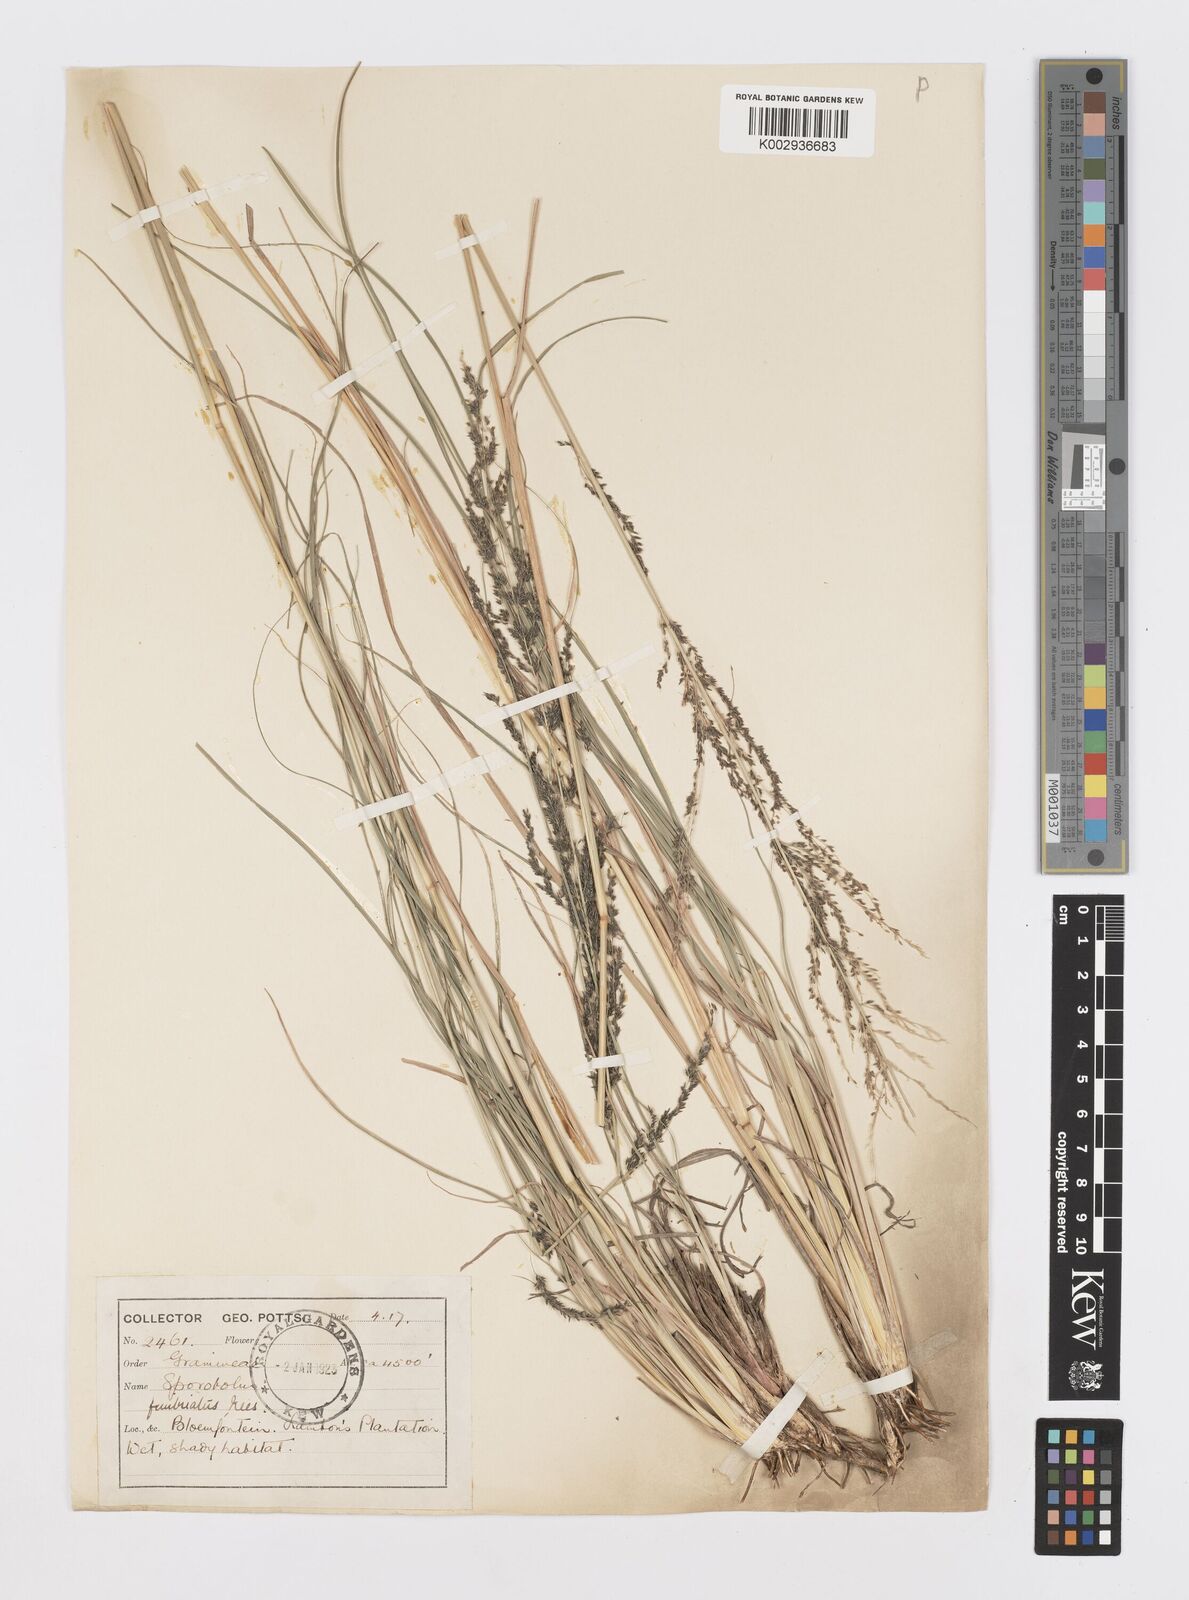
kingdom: Plantae
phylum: Tracheophyta
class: Liliopsida
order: Poales
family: Poaceae
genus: Sporobolus
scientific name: Sporobolus fimbriatus
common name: Fringed dropseed
